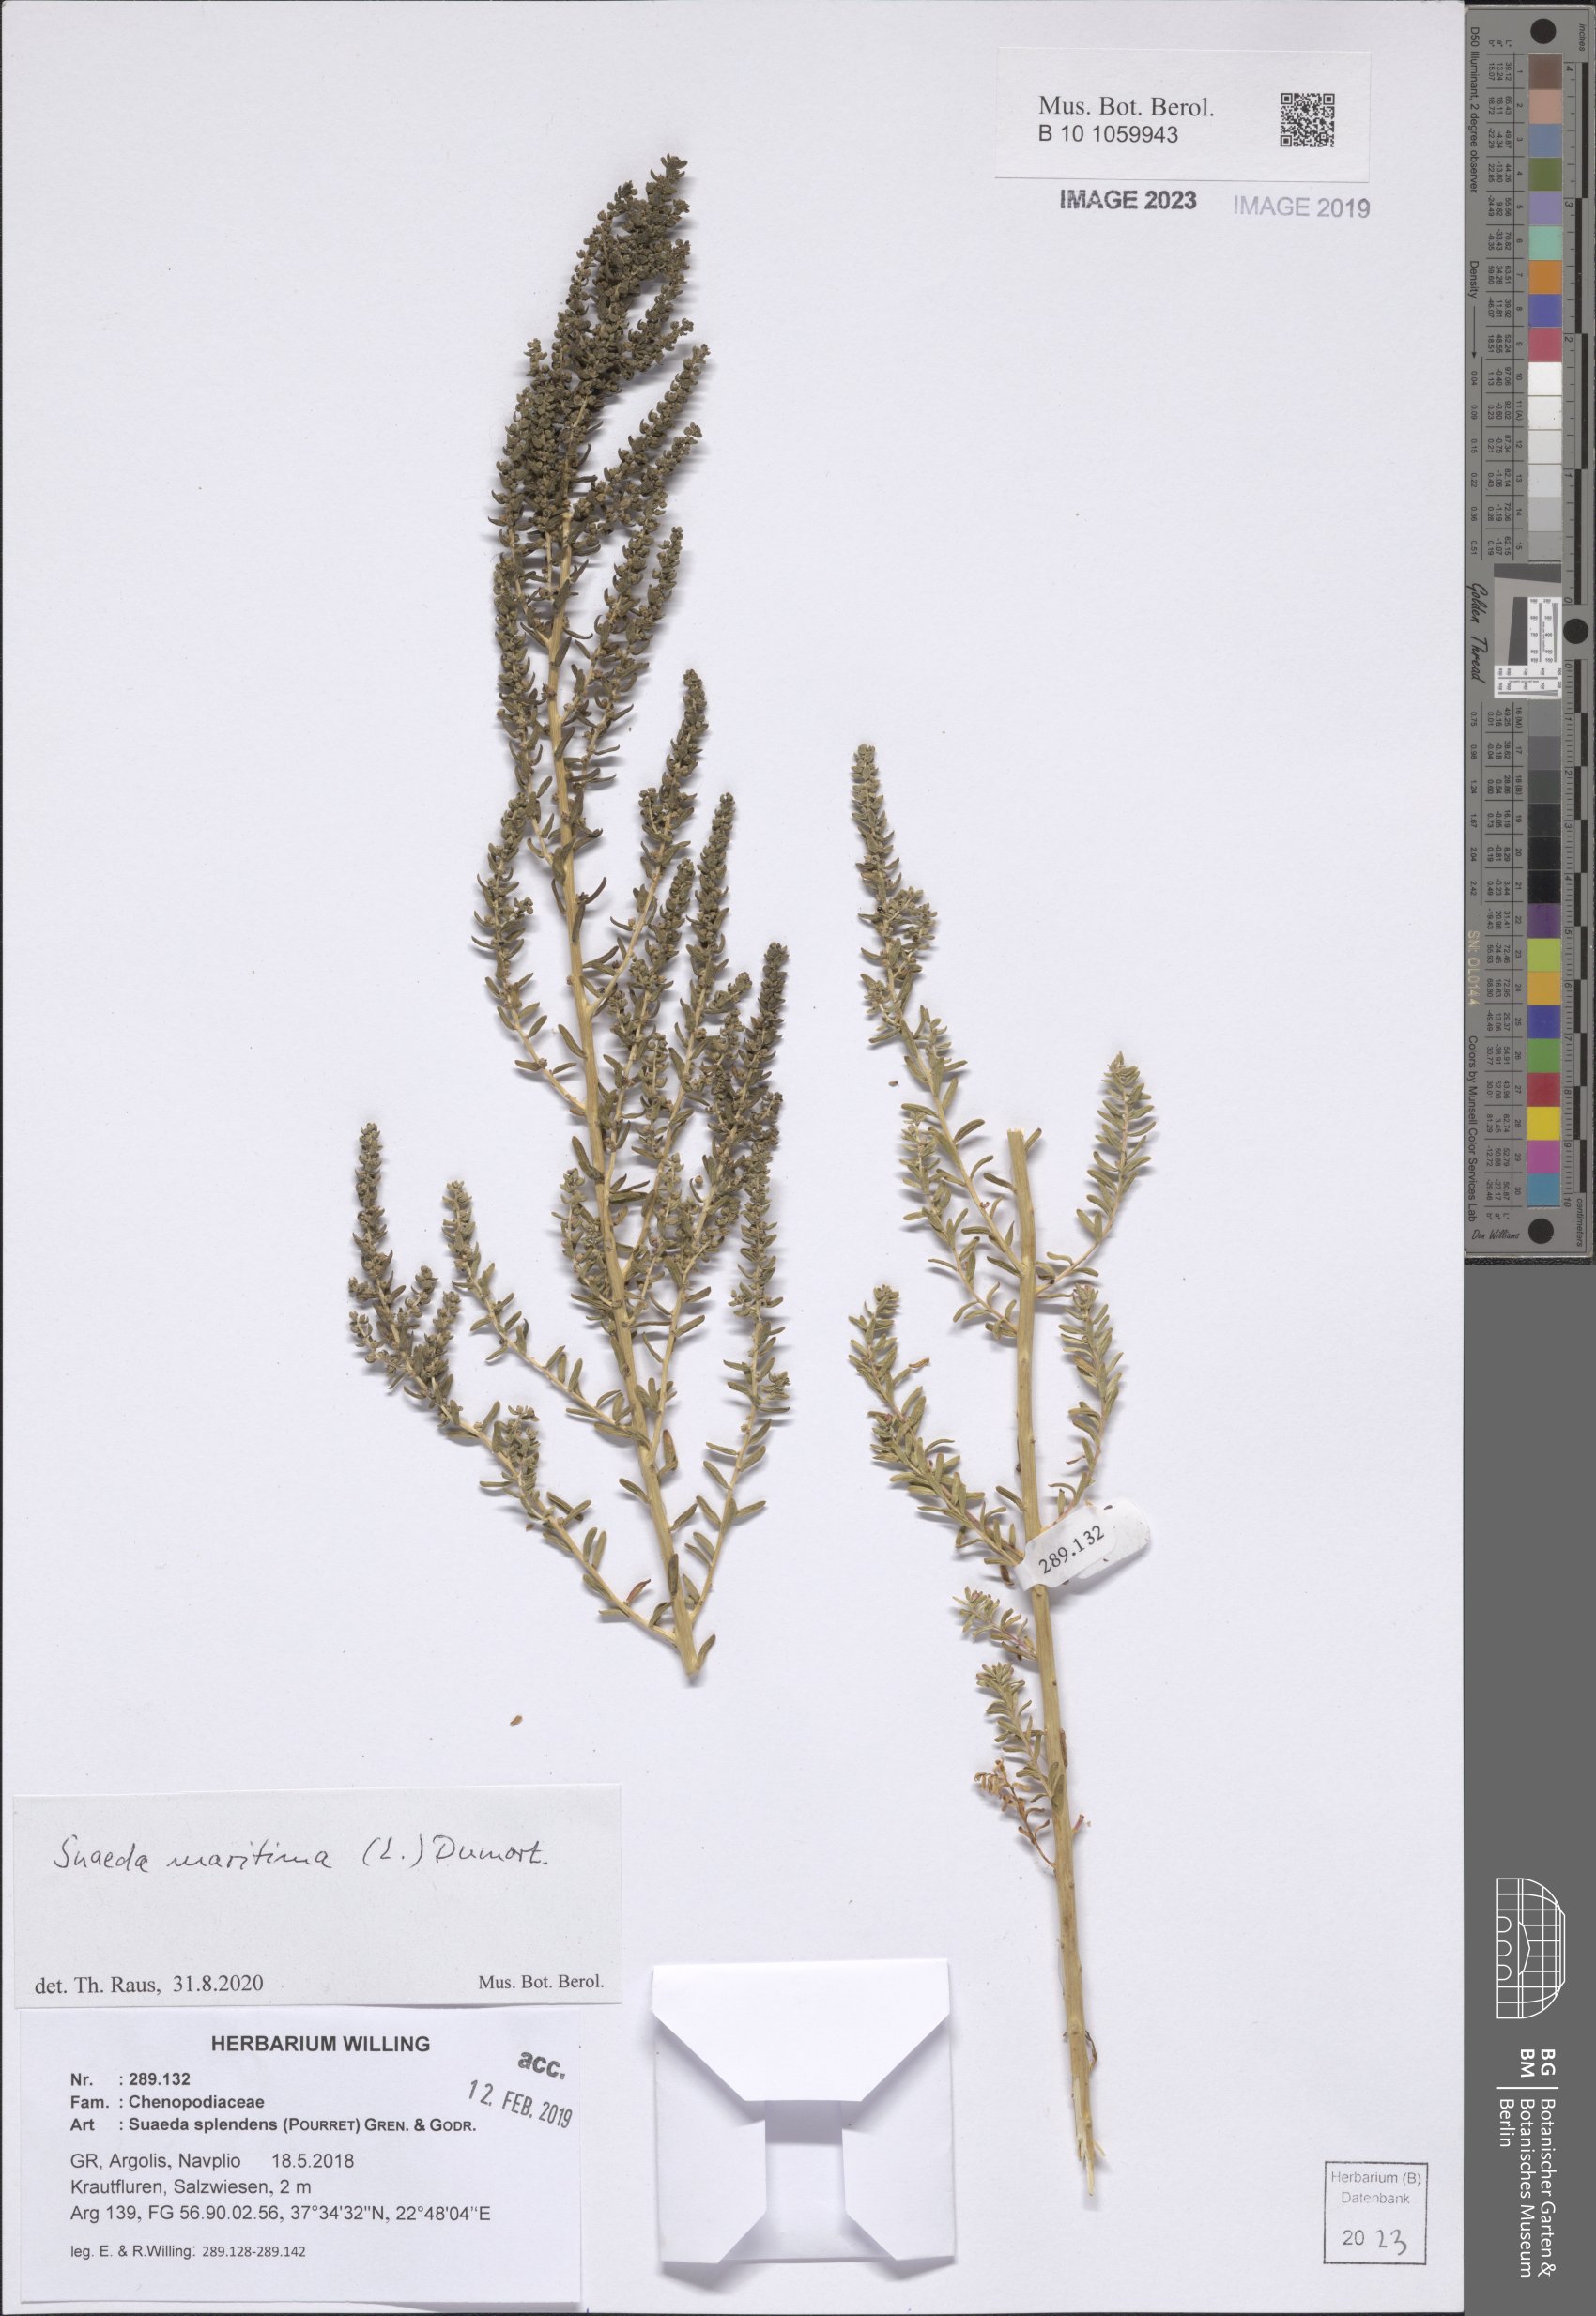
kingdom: Plantae
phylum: Tracheophyta
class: Magnoliopsida
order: Caryophyllales
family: Amaranthaceae
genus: Suaeda
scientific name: Suaeda maritima
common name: Annual sea-blite
